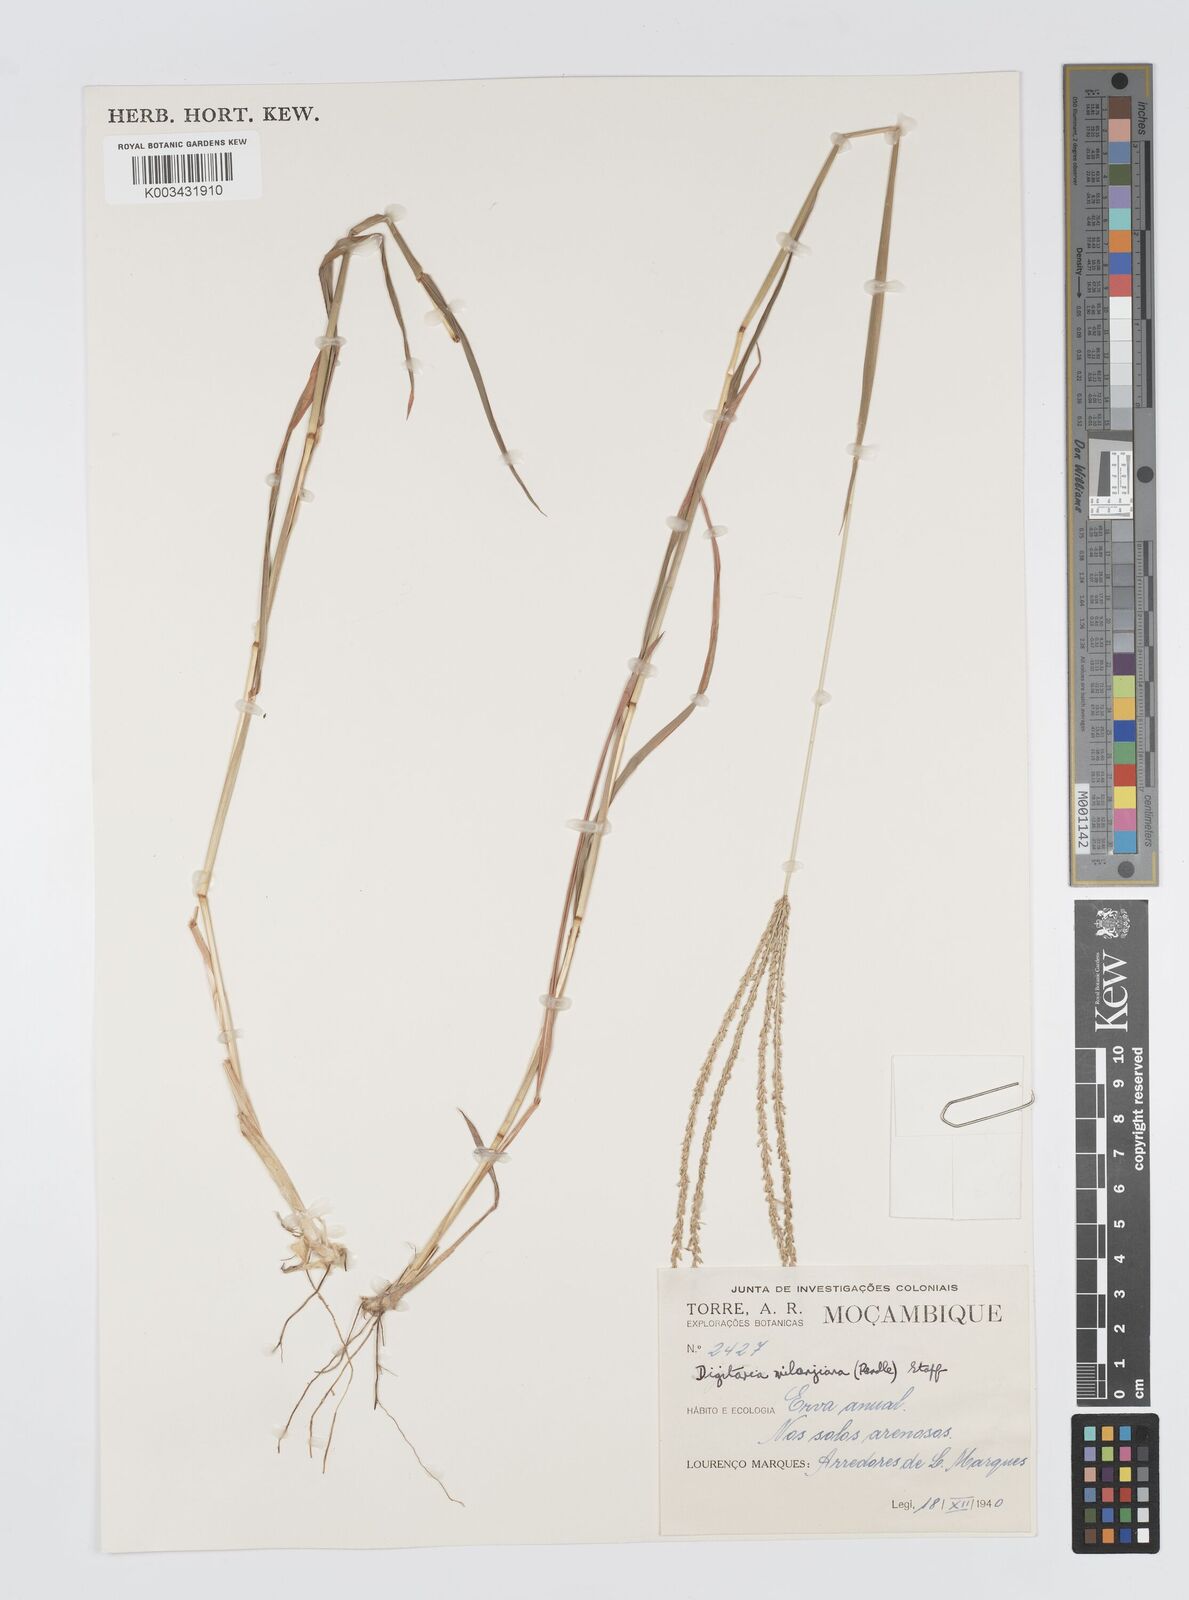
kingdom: Plantae
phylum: Tracheophyta
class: Liliopsida
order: Poales
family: Poaceae
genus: Digitaria
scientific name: Digitaria milanjiana
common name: Madagascar crabgrass
